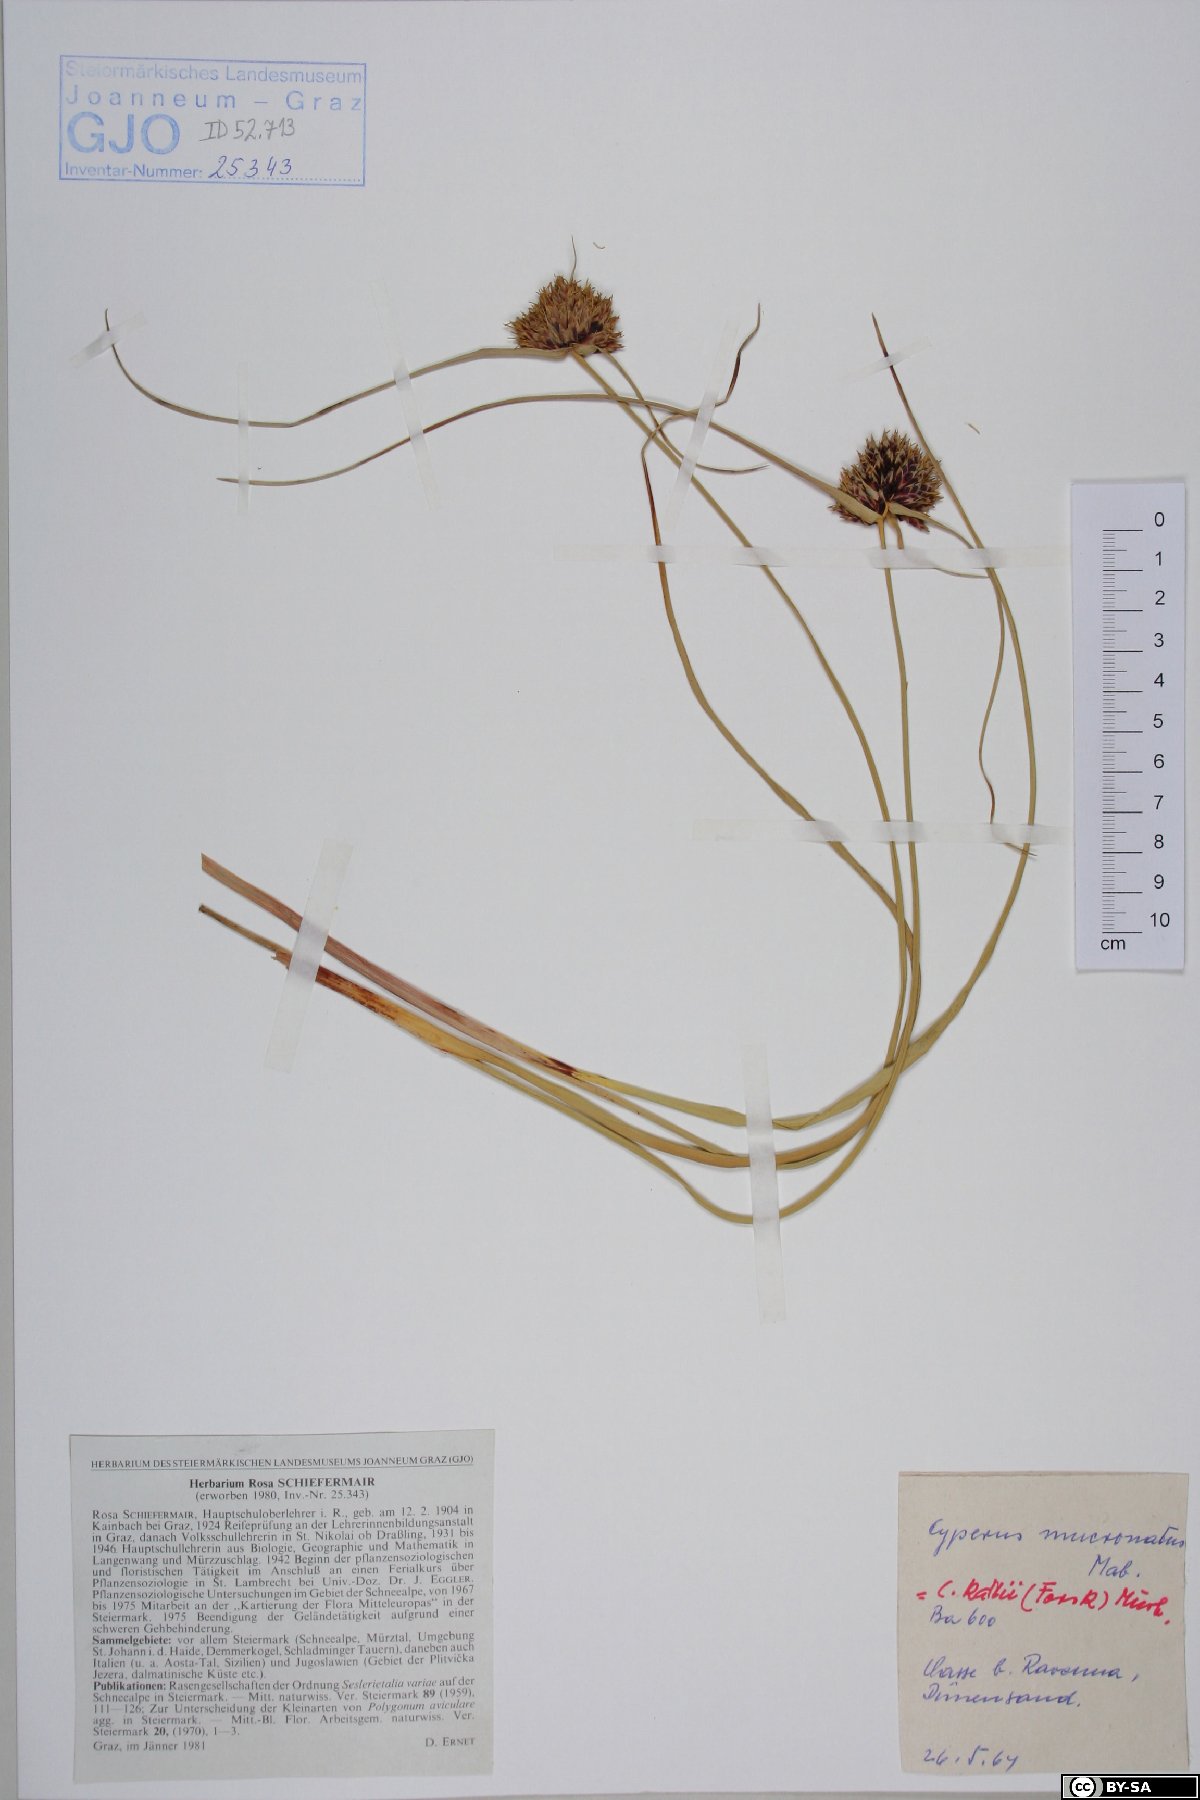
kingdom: Plantae
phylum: Tracheophyta
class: Liliopsida
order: Poales
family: Cyperaceae
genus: Cyperus
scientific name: Cyperus capitatus
